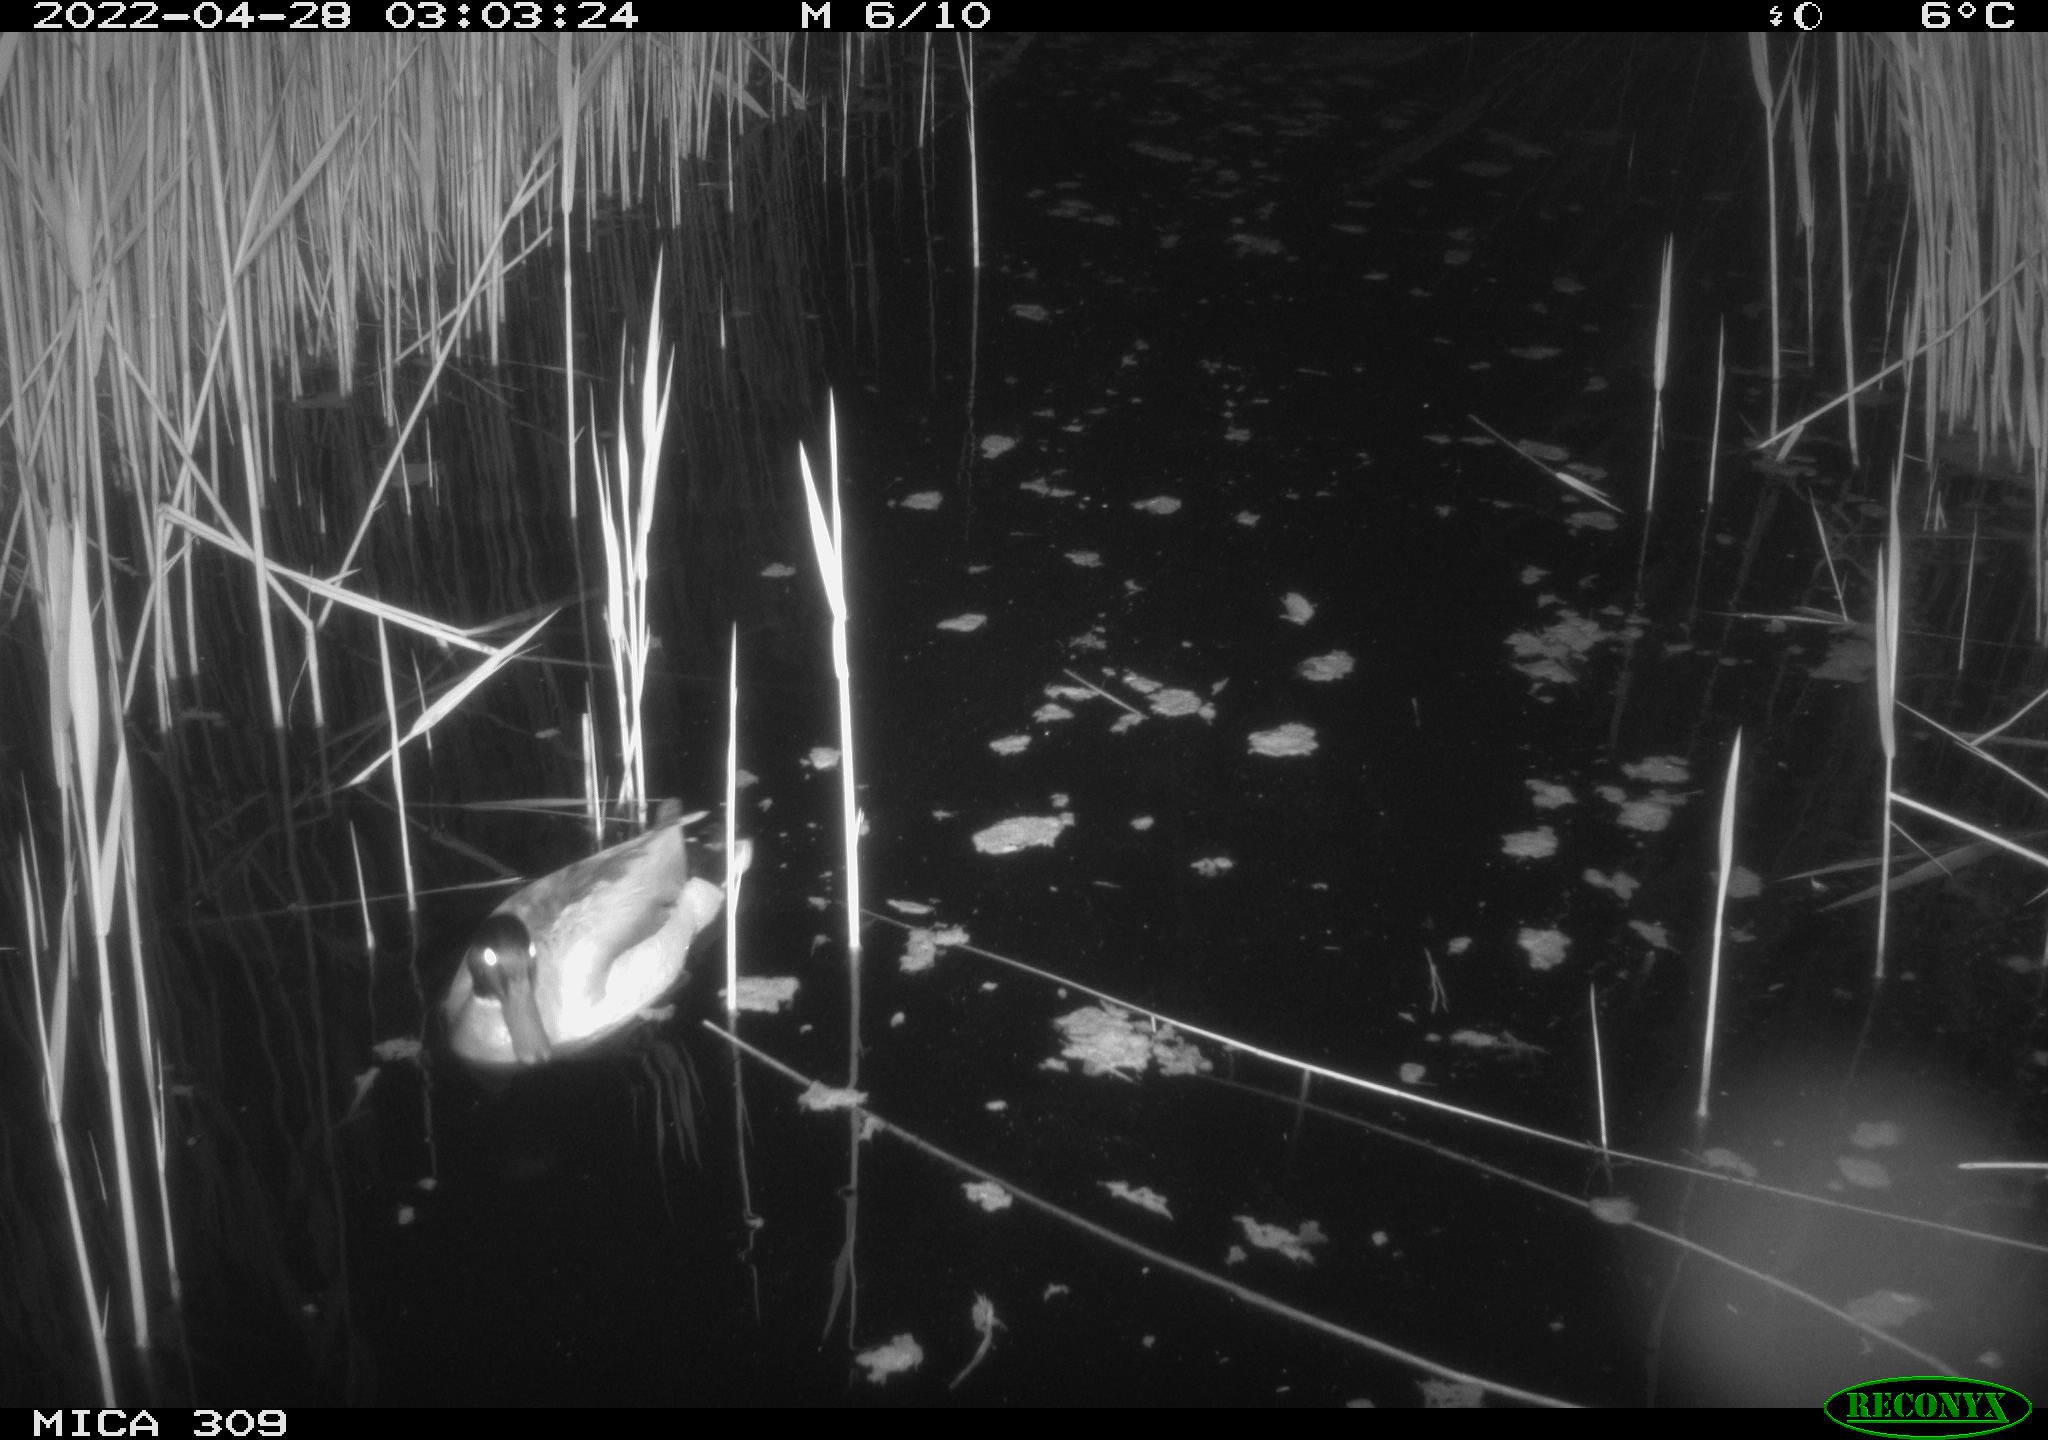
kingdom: Animalia
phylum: Chordata
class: Aves
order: Gruiformes
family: Rallidae
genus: Gallinula
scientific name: Gallinula chloropus
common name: Common moorhen
